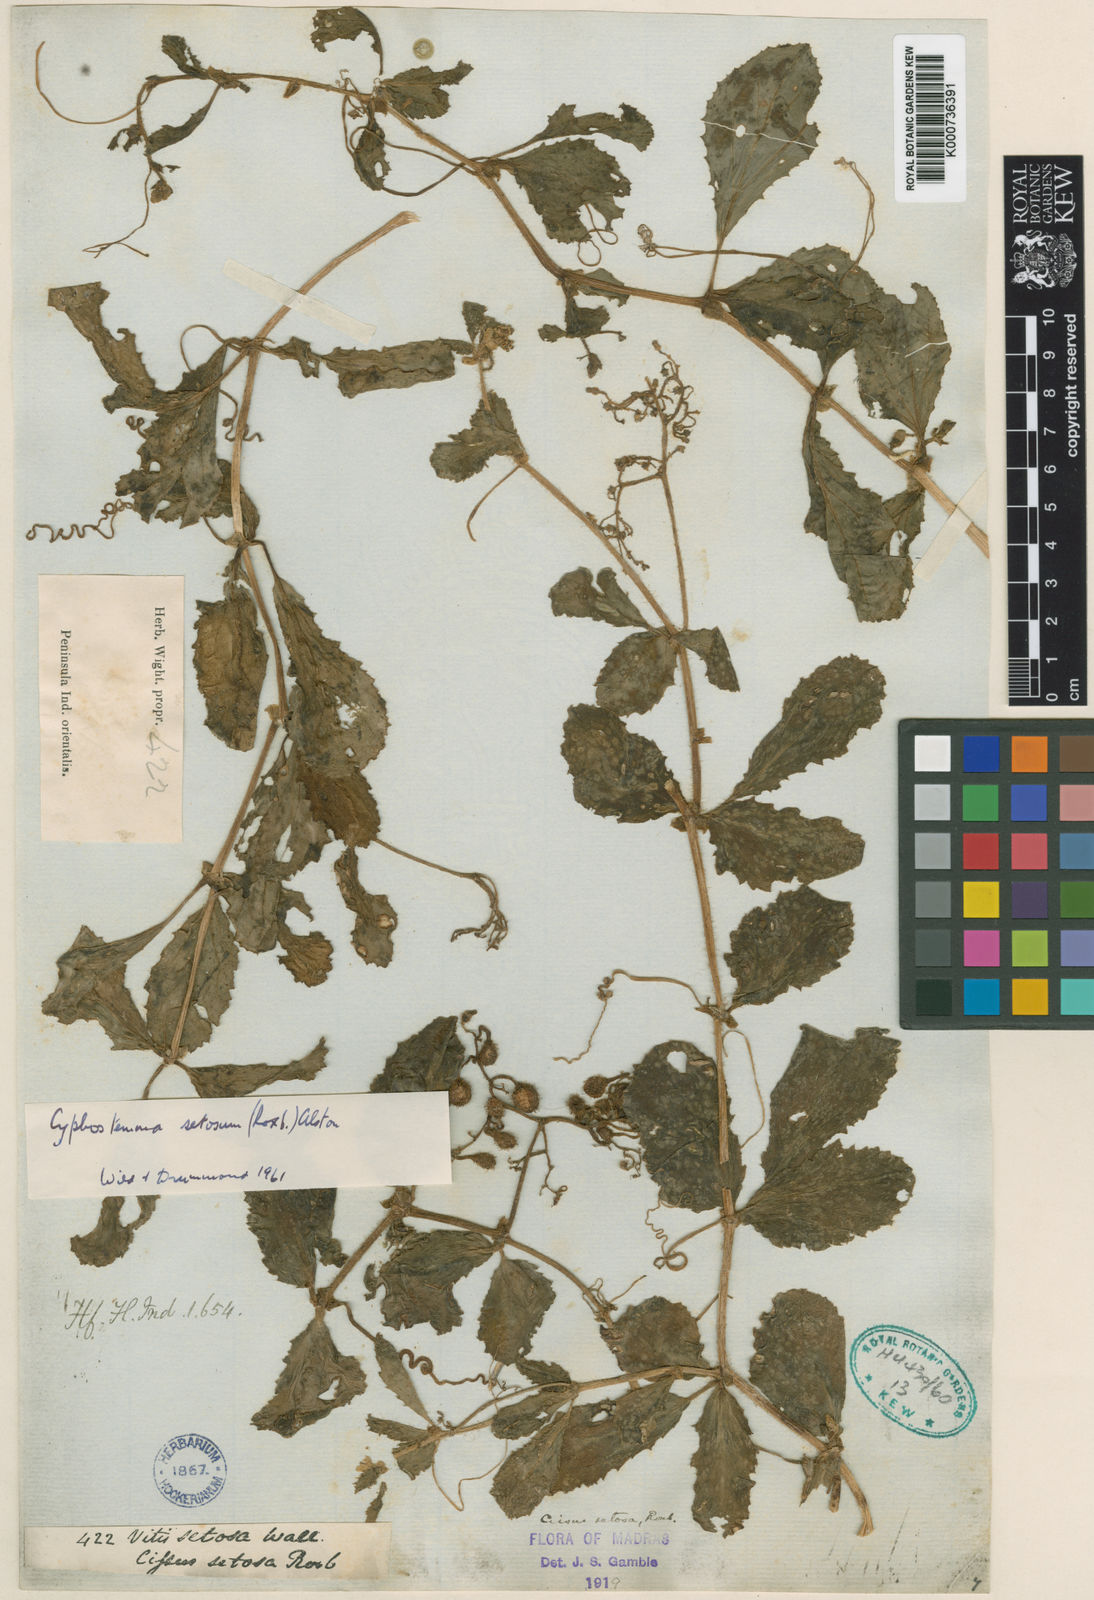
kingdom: Plantae
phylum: Tracheophyta
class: Magnoliopsida
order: Vitales
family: Vitaceae
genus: Cyphostemma
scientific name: Cyphostemma setosum
